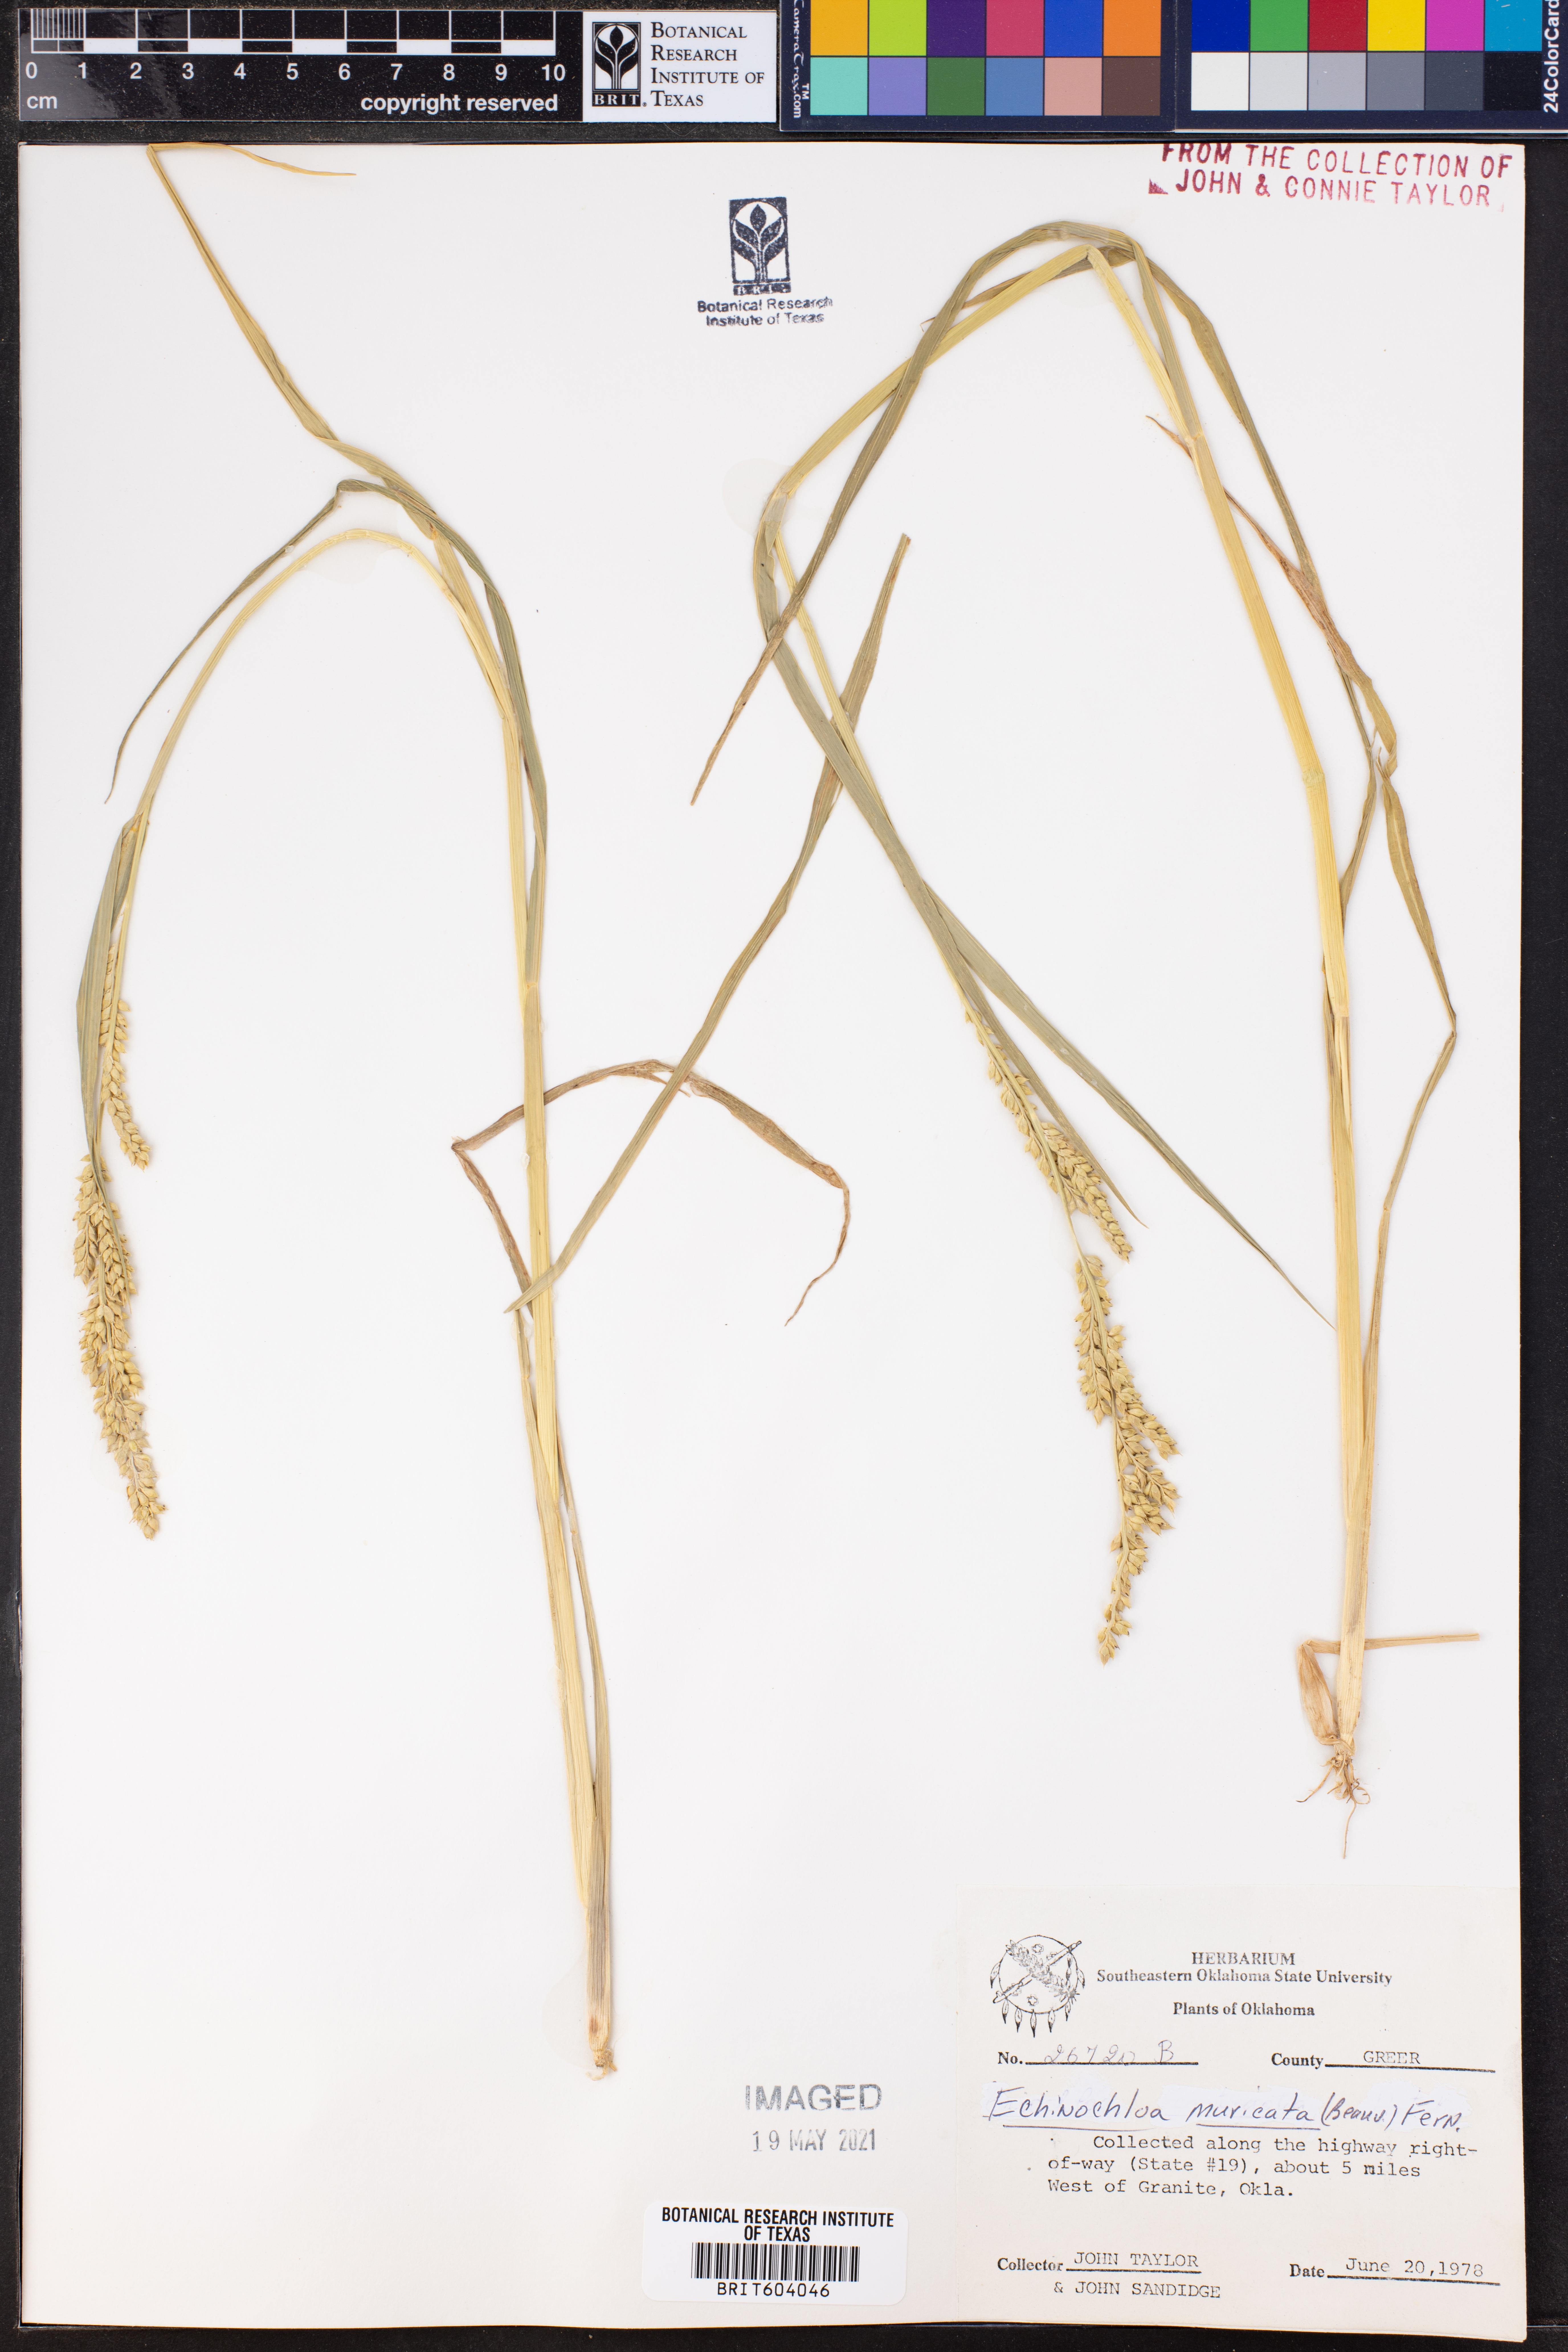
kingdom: Plantae
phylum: Tracheophyta
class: Liliopsida
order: Poales
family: Poaceae
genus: Echinochloa
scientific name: Echinochloa muricata
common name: American barnyard grass
